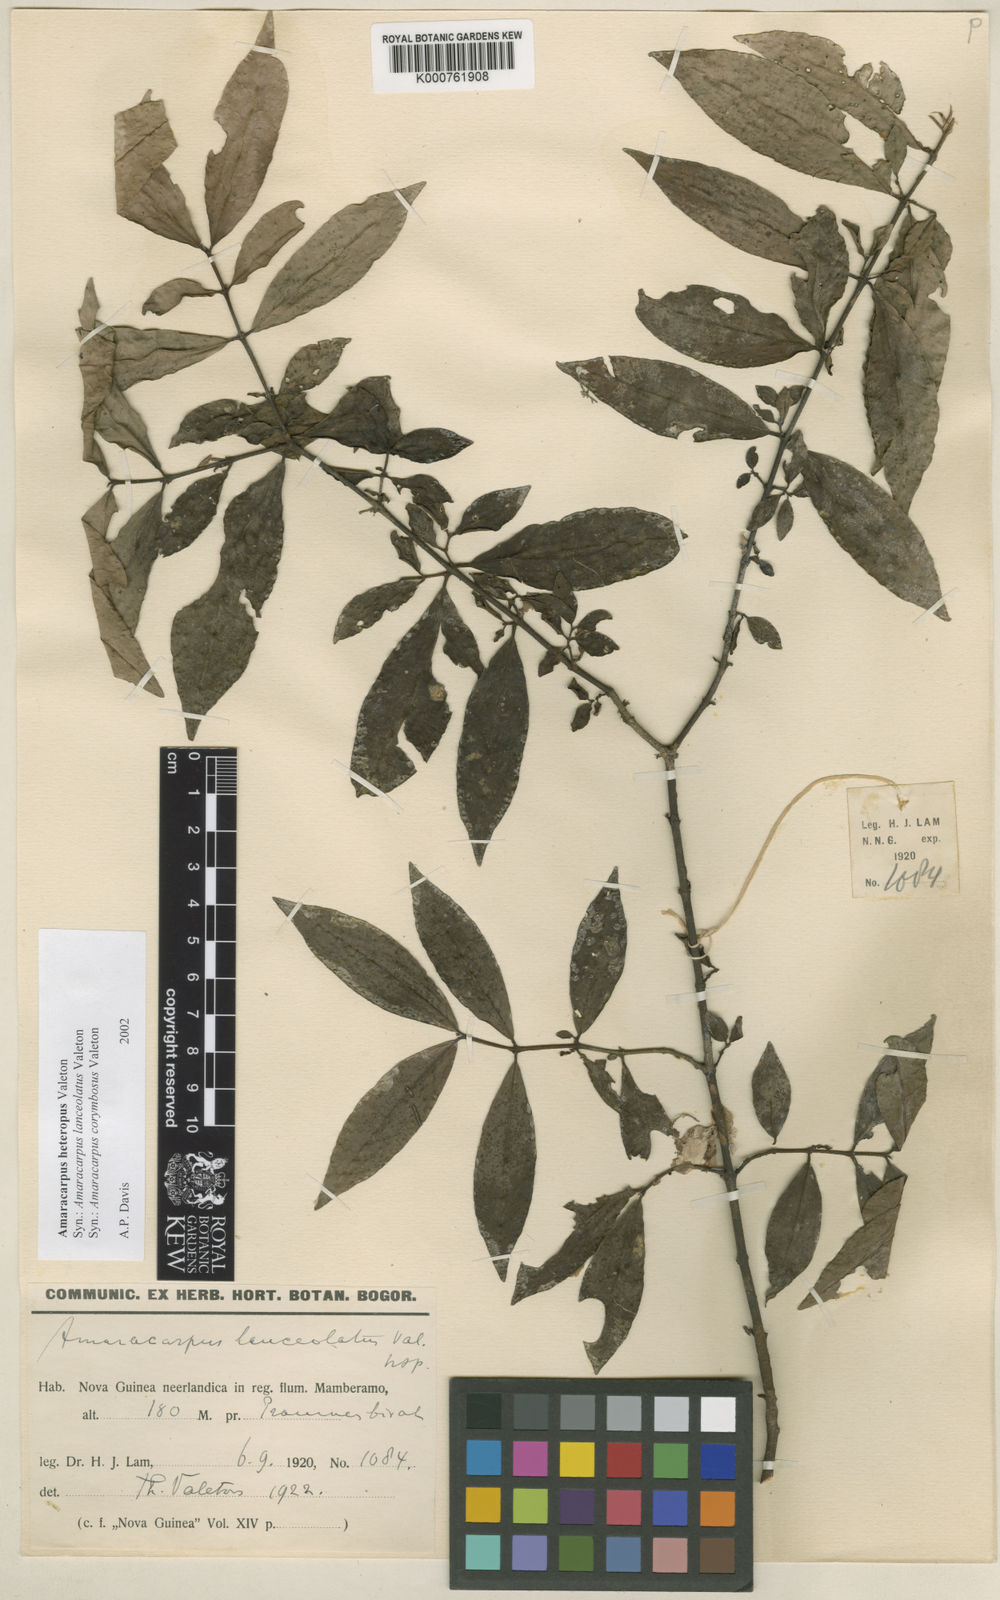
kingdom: Plantae
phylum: Tracheophyta
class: Magnoliopsida
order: Gentianales
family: Rubiaceae
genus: Amaracarpus
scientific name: Amaracarpus nematopodus
